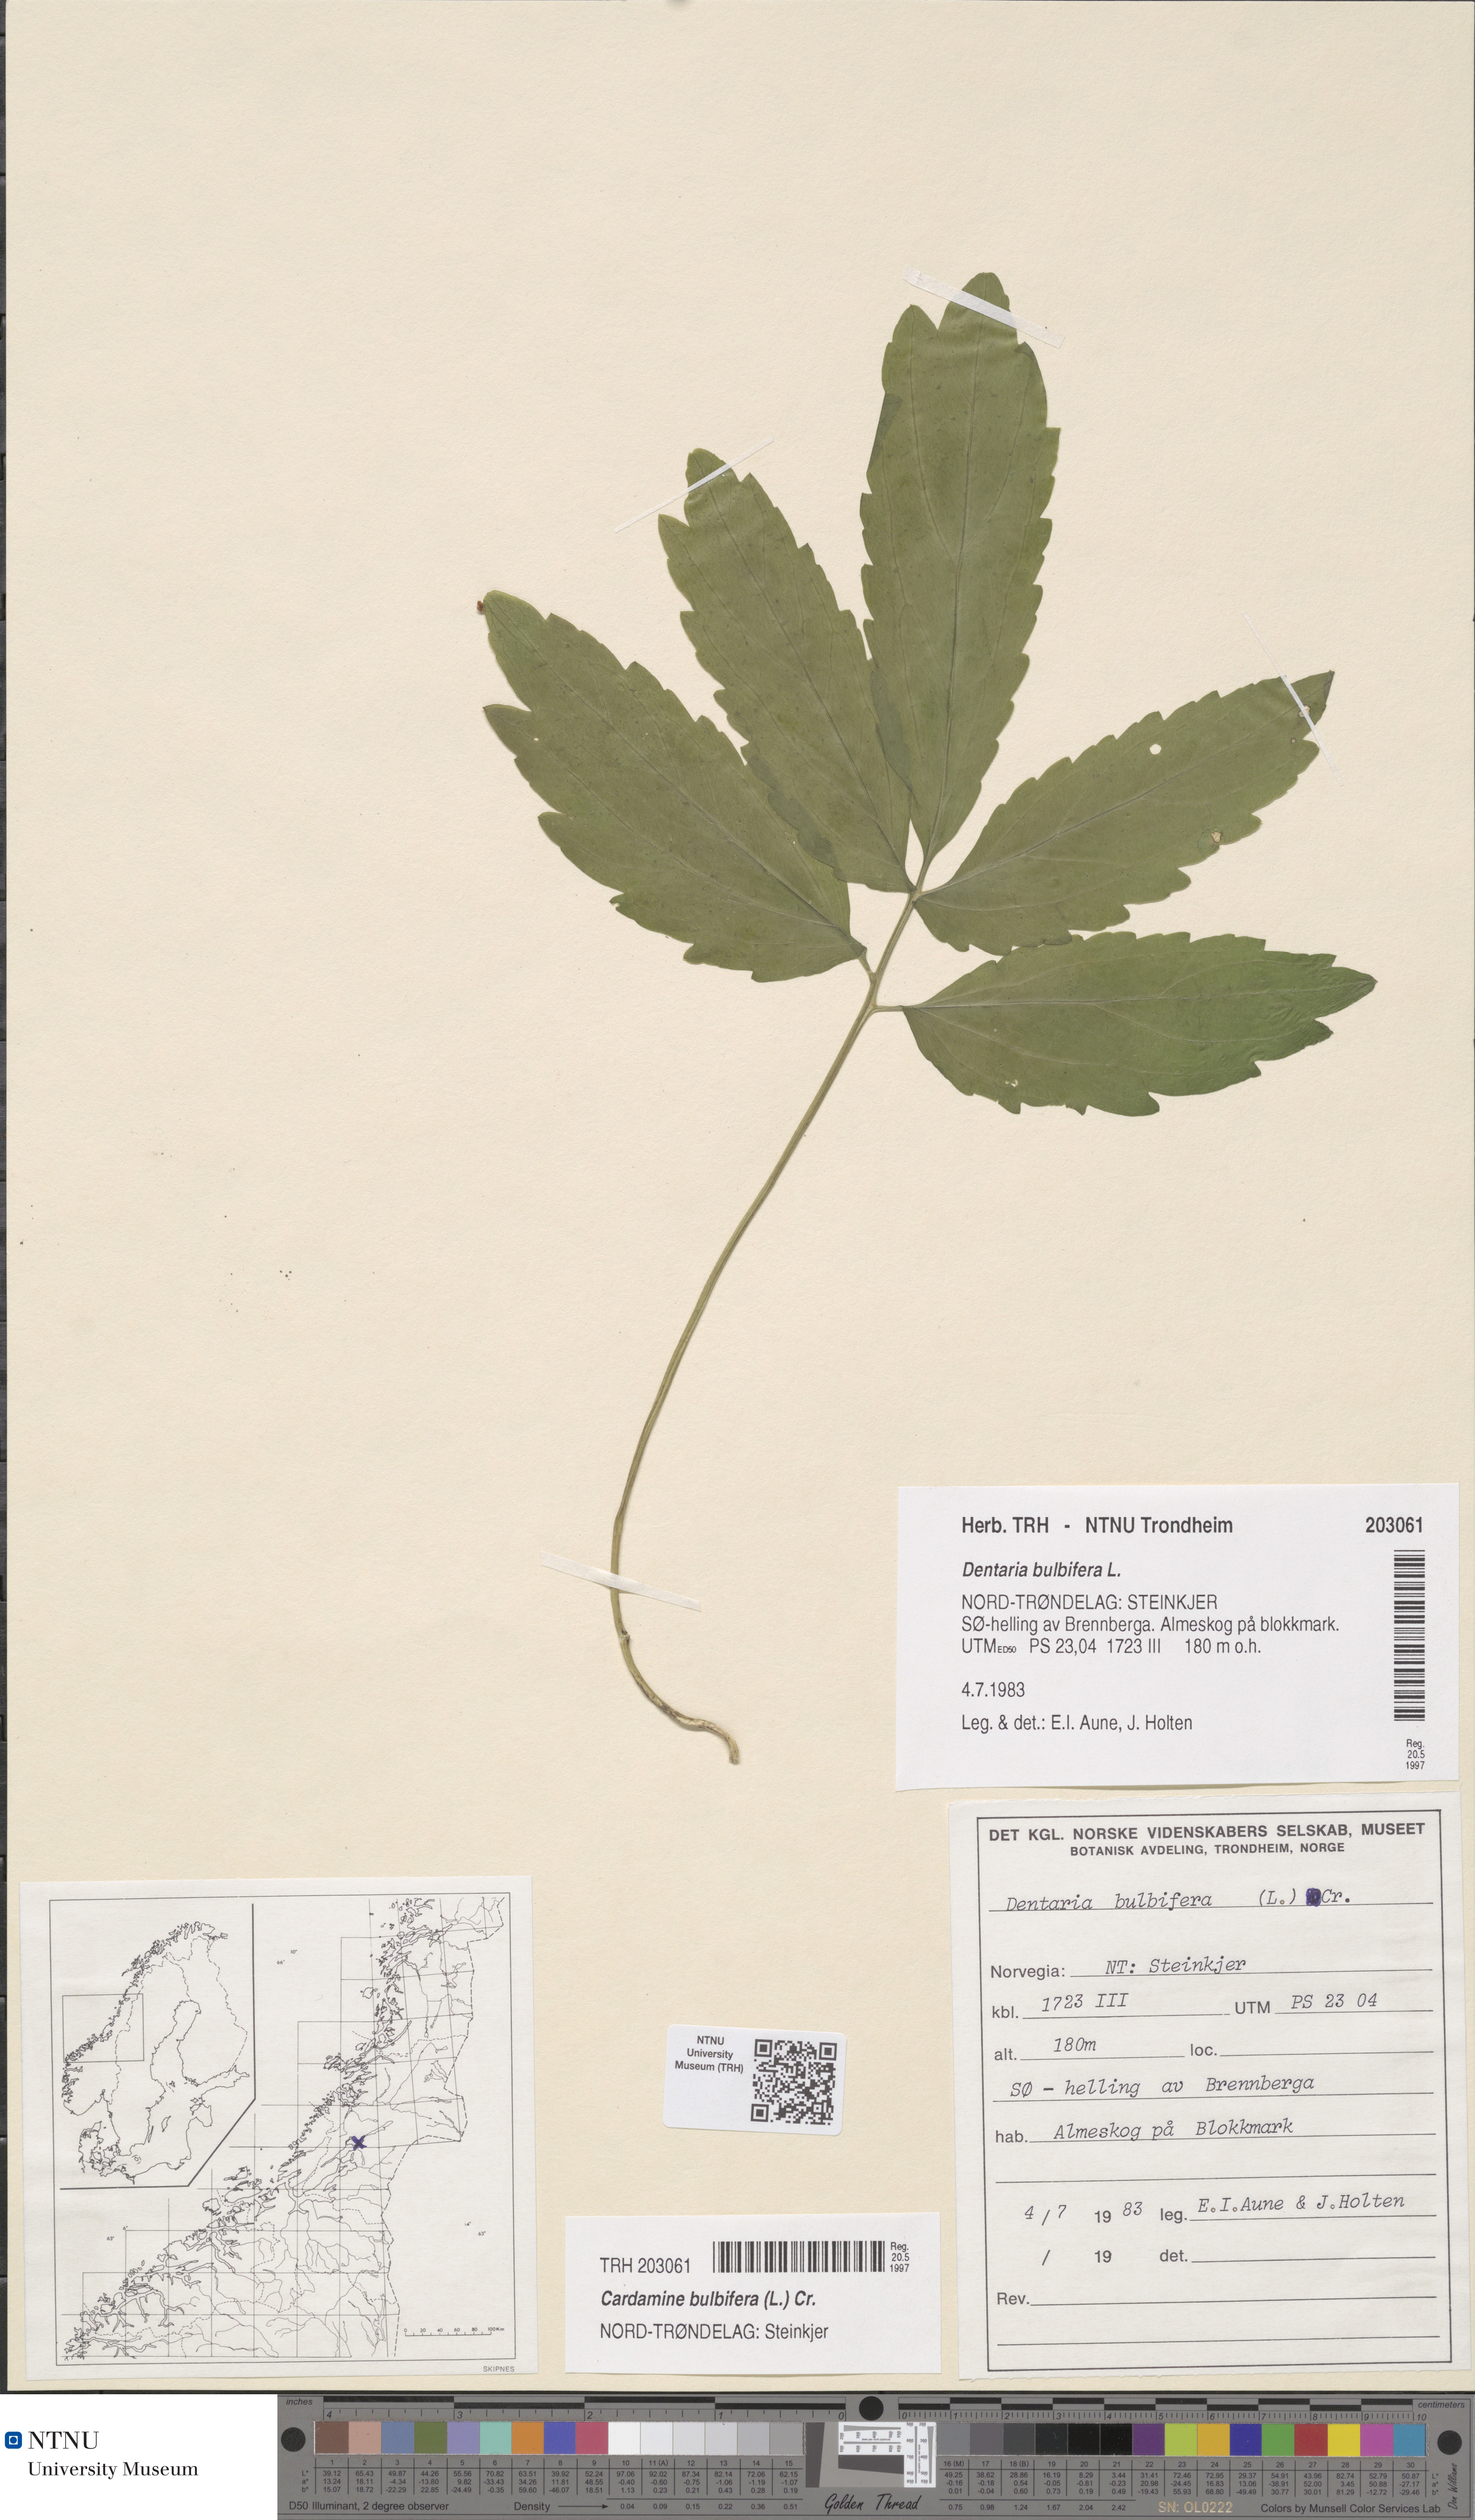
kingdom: Plantae
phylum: Tracheophyta
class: Magnoliopsida
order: Brassicales
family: Brassicaceae
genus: Cardamine
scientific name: Cardamine bulbifera
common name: Coralroot bittercress
